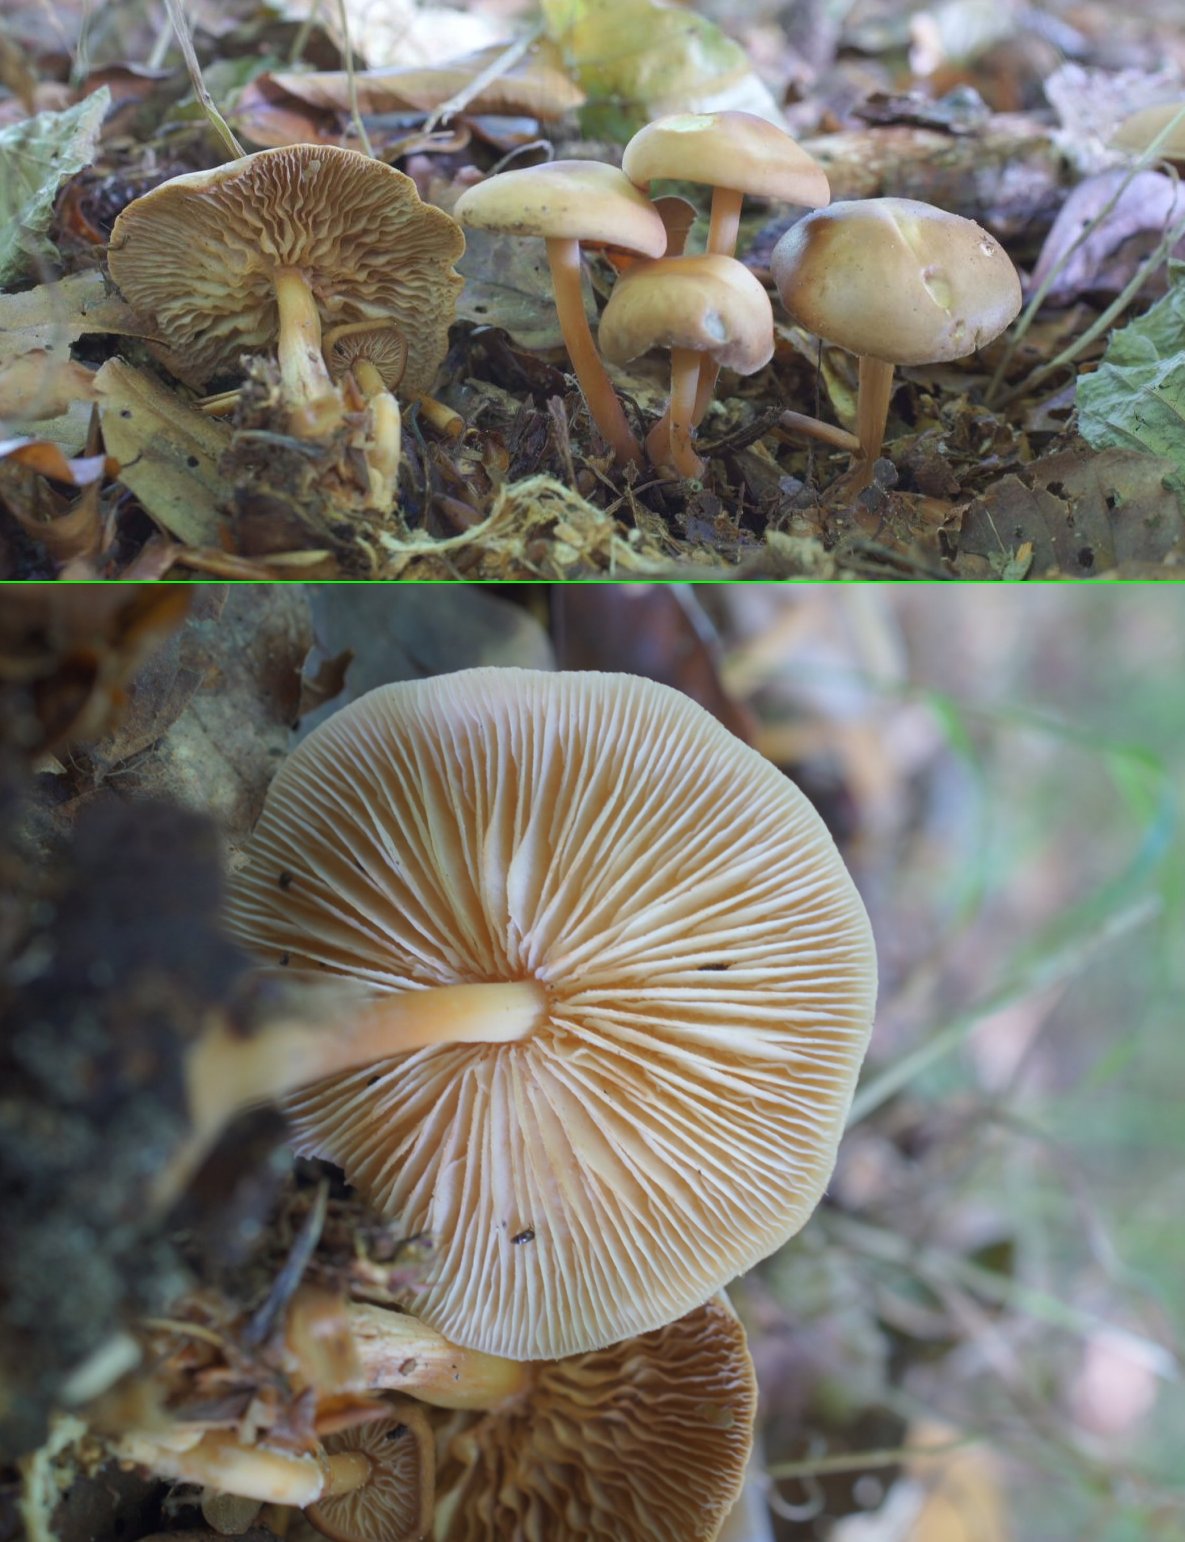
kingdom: Fungi
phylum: Basidiomycota
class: Agaricomycetes
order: Agaricales
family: Omphalotaceae
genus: Gymnopus
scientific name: Gymnopus
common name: fladhat
